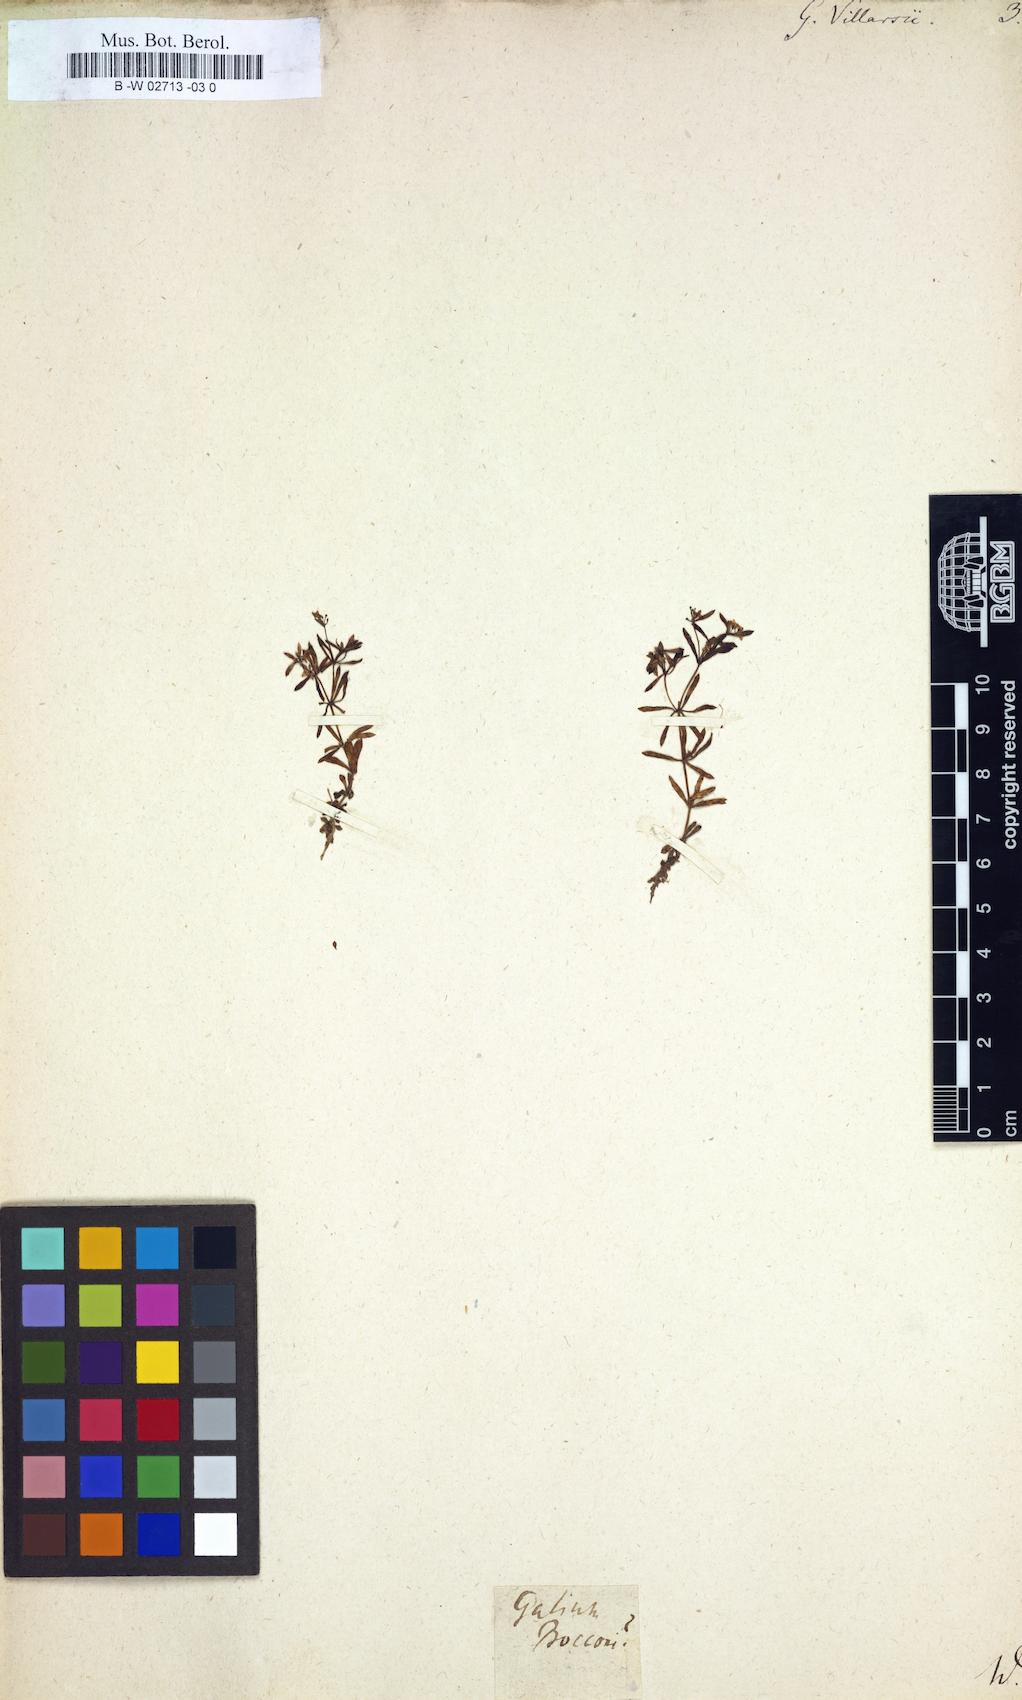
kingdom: Plantae
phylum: Tracheophyta
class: Magnoliopsida
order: Gentianales
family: Rubiaceae
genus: Galium
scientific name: Galium
